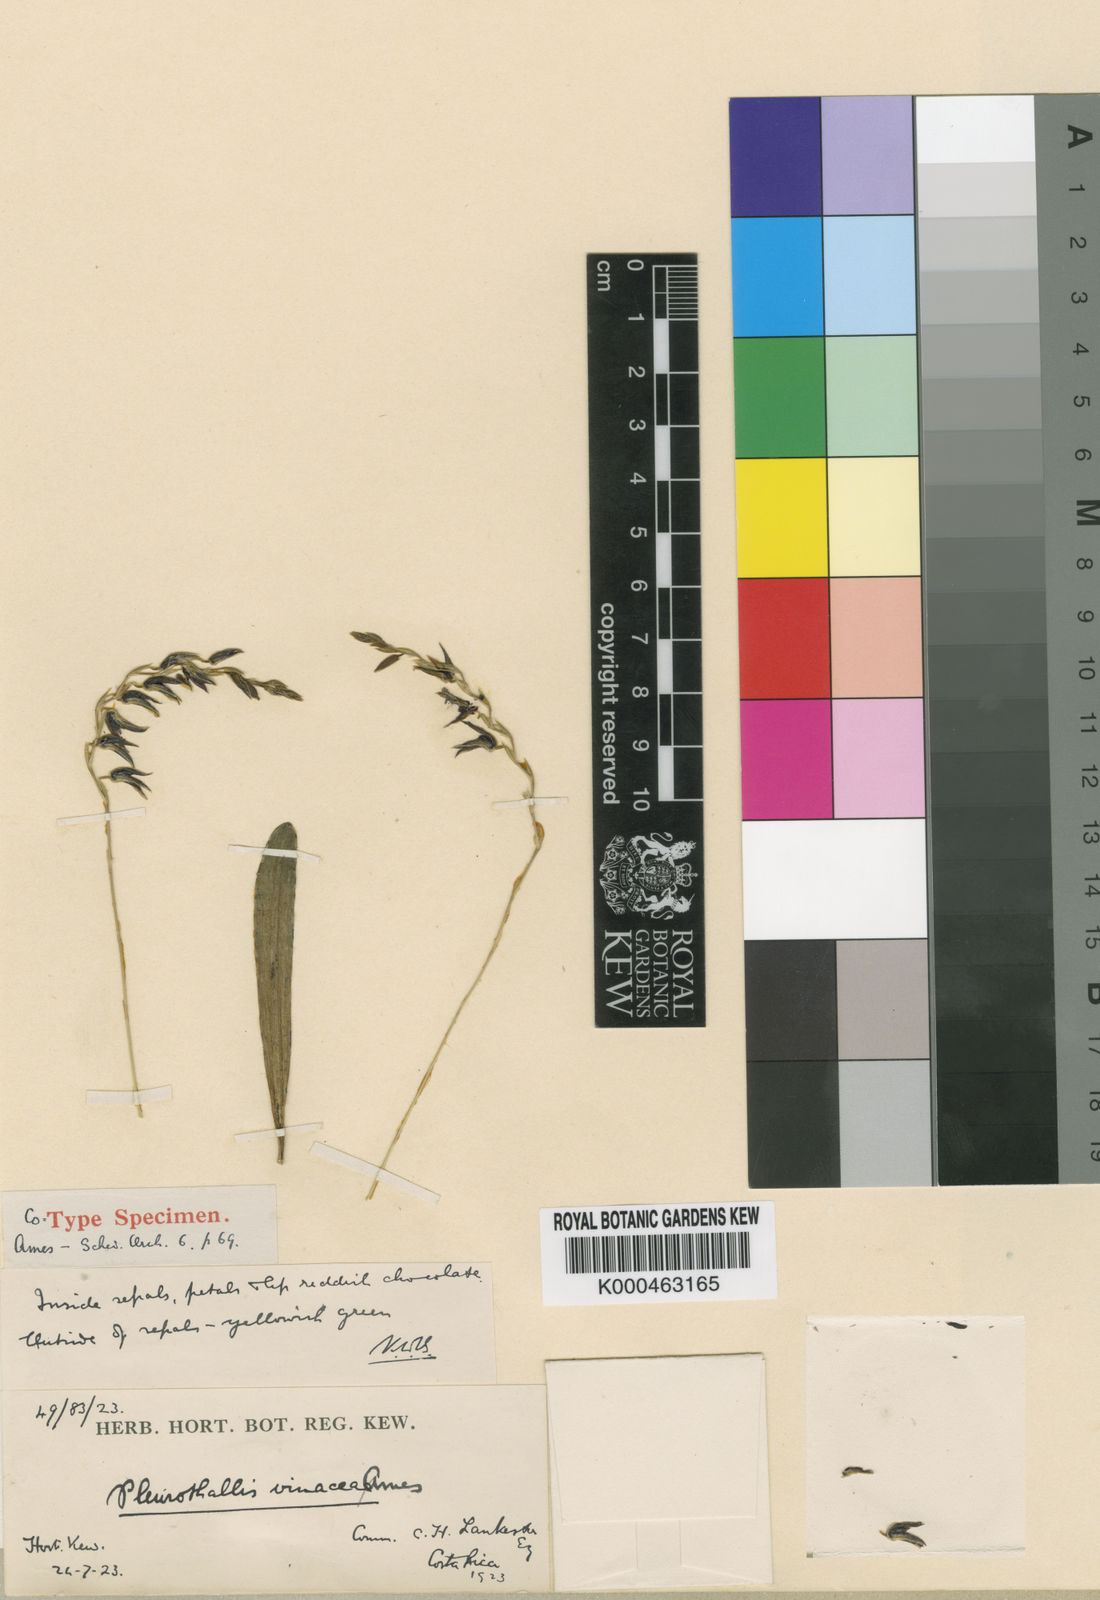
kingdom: Plantae
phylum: Tracheophyta
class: Liliopsida
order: Asparagales
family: Orchidaceae
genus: Pleurothallis
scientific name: Pleurothallis vinacea
